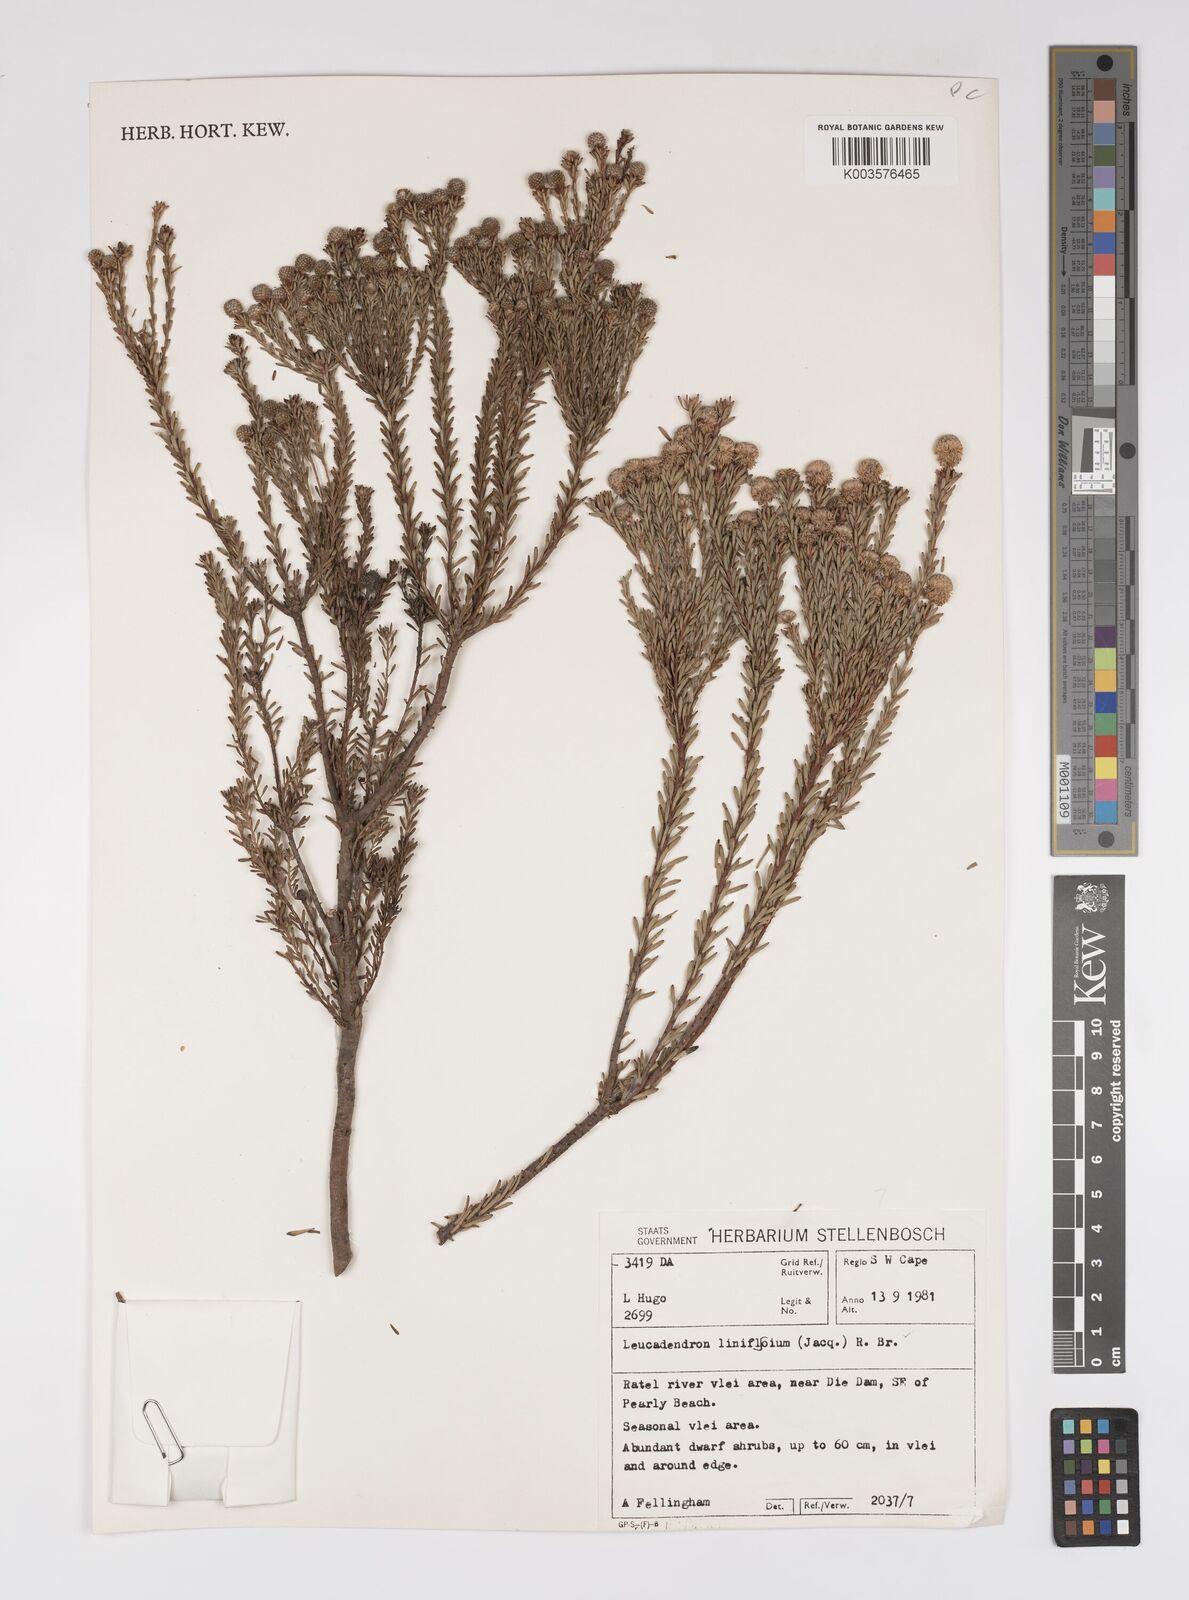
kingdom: Plantae
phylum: Tracheophyta
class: Magnoliopsida
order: Proteales
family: Proteaceae
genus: Leucadendron
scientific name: Leucadendron linifolium
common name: Line-leaf conebush
